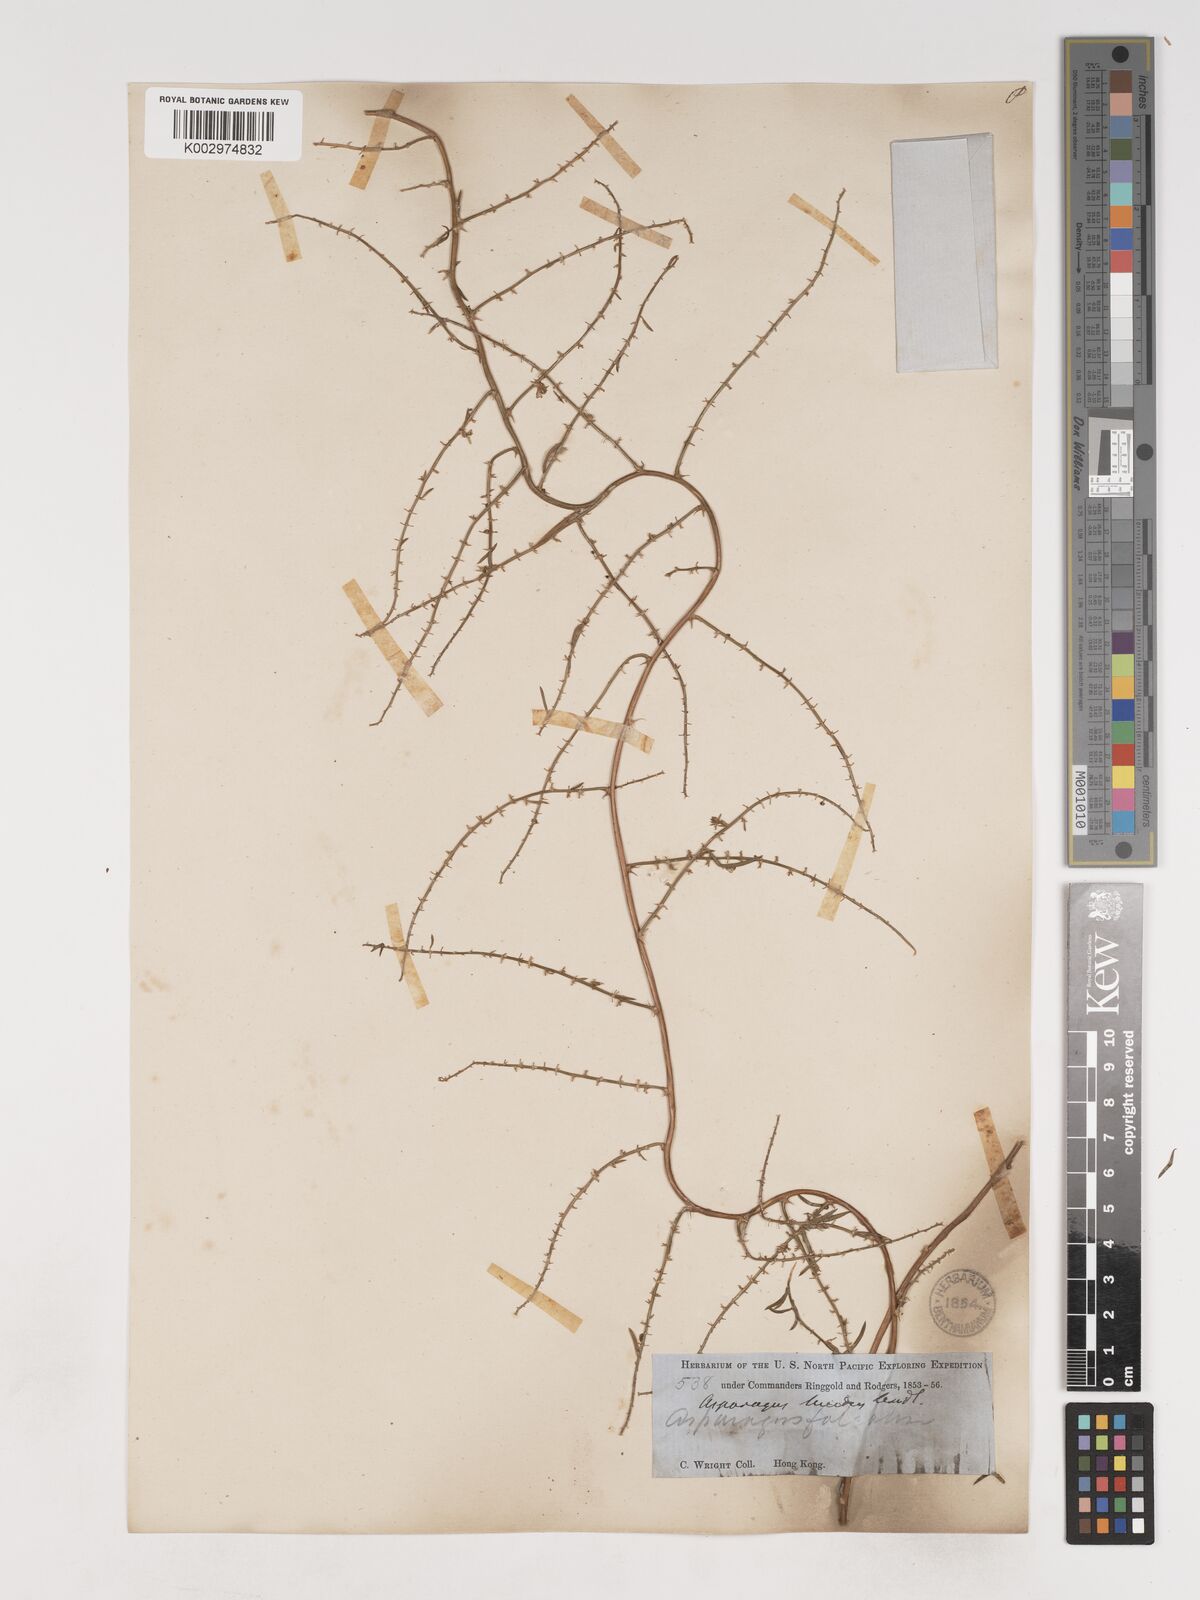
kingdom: Plantae
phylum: Tracheophyta
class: Liliopsida
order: Asparagales
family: Asparagaceae
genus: Asparagus
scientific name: Asparagus cochinchinensis
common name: Chinese asparagus
